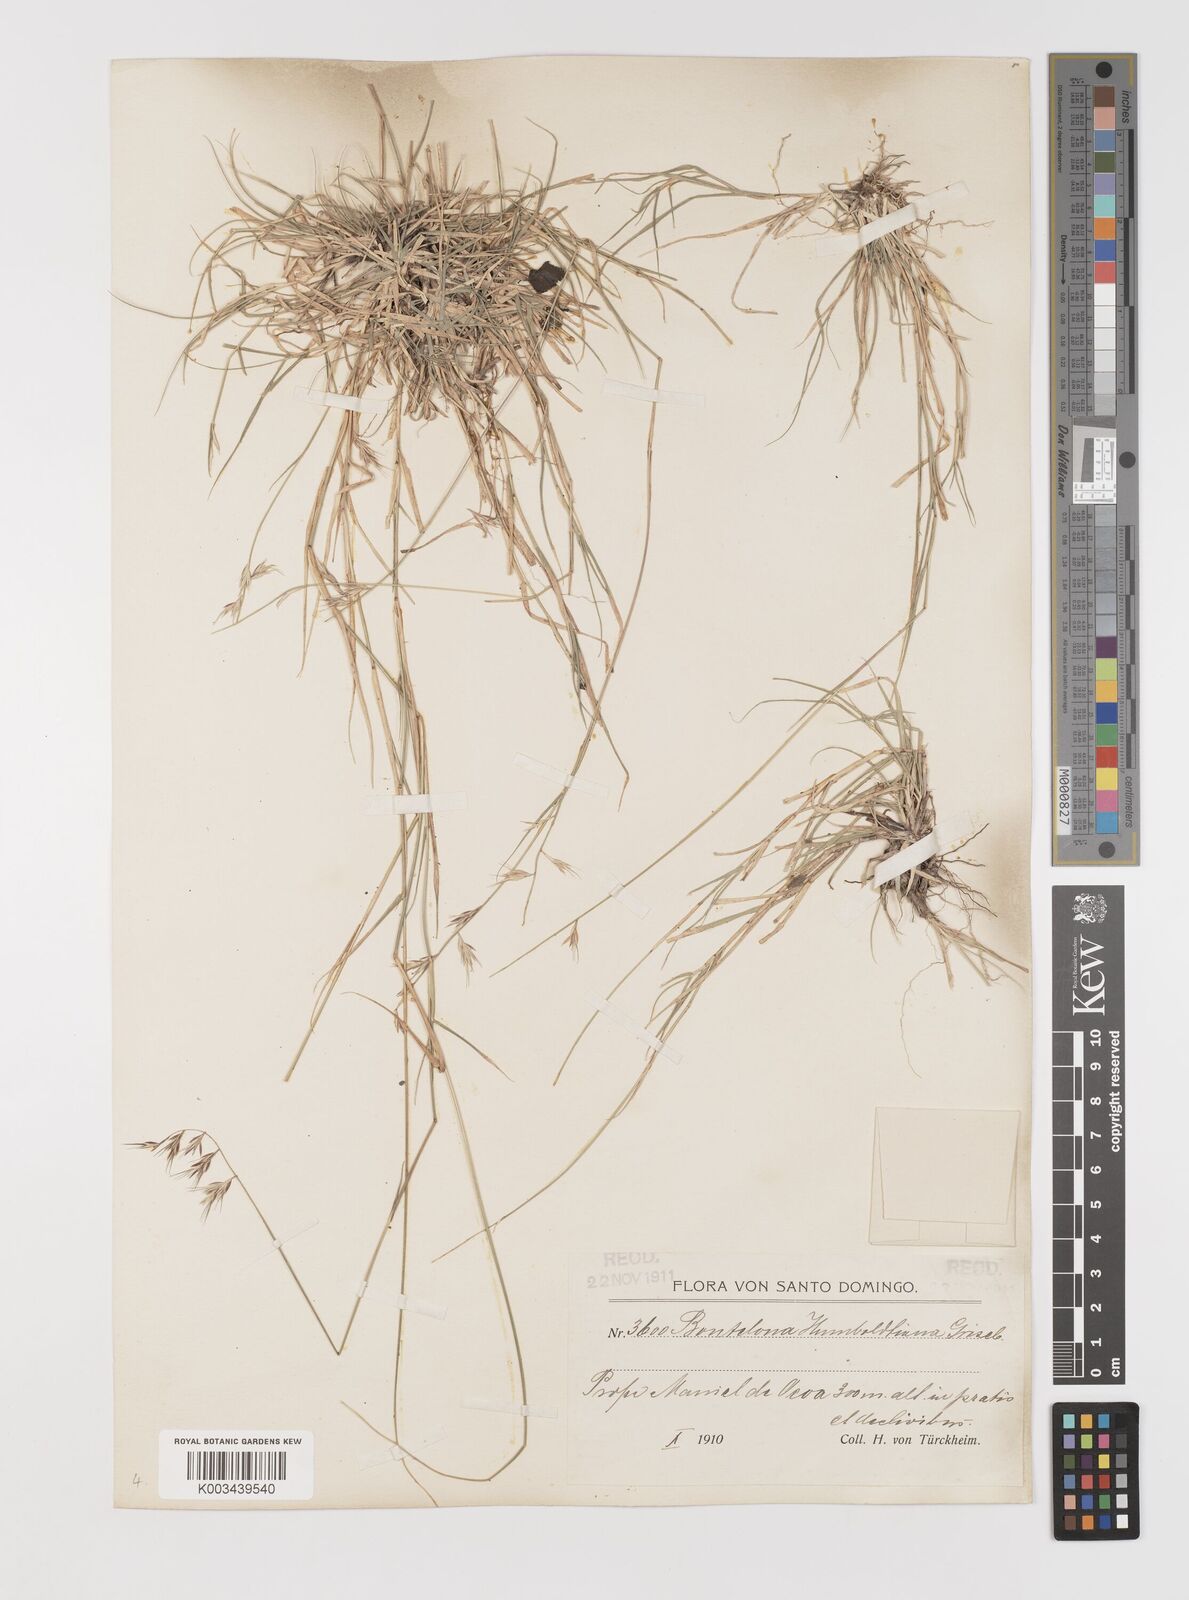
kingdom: Plantae
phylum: Tracheophyta
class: Liliopsida
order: Poales
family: Poaceae
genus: Bouteloua
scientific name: Bouteloua repens
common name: Slender grama
